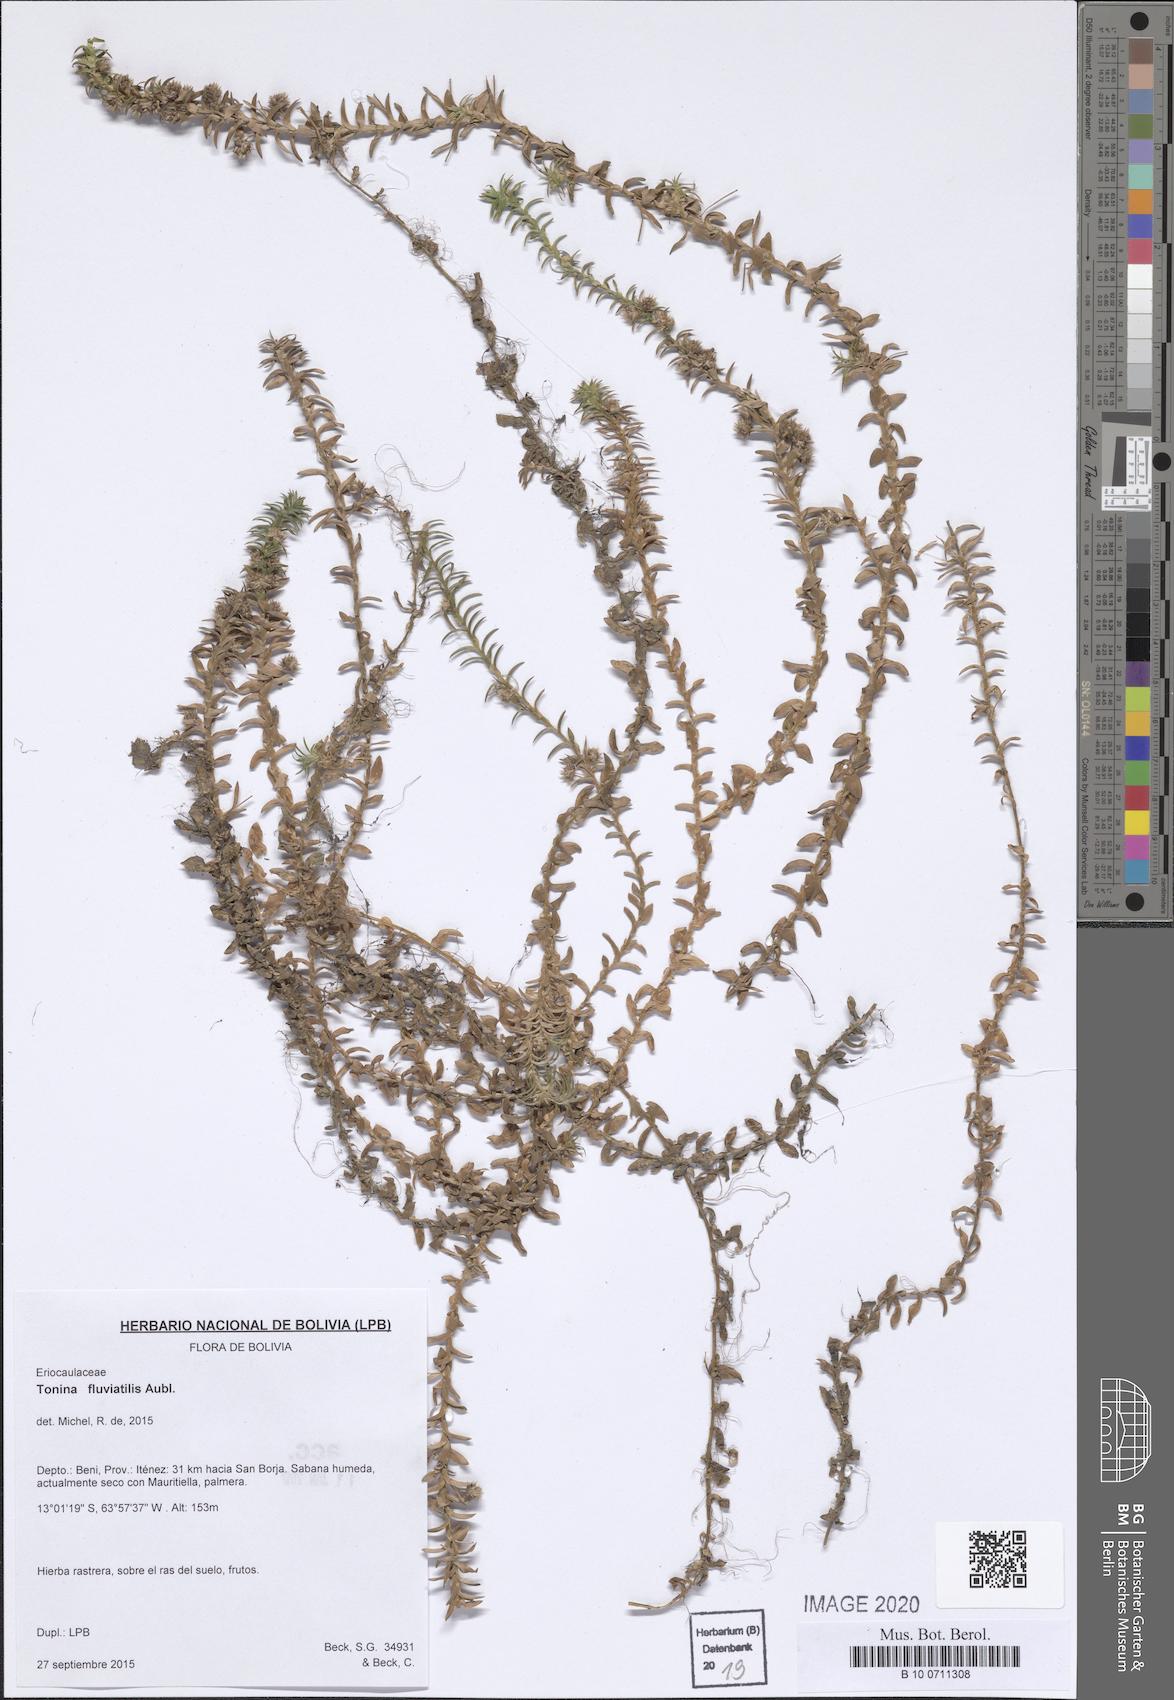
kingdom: Plantae
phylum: Tracheophyta
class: Liliopsida
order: Poales
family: Eriocaulaceae
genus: Paepalanthus
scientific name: Paepalanthus fluviatilis
